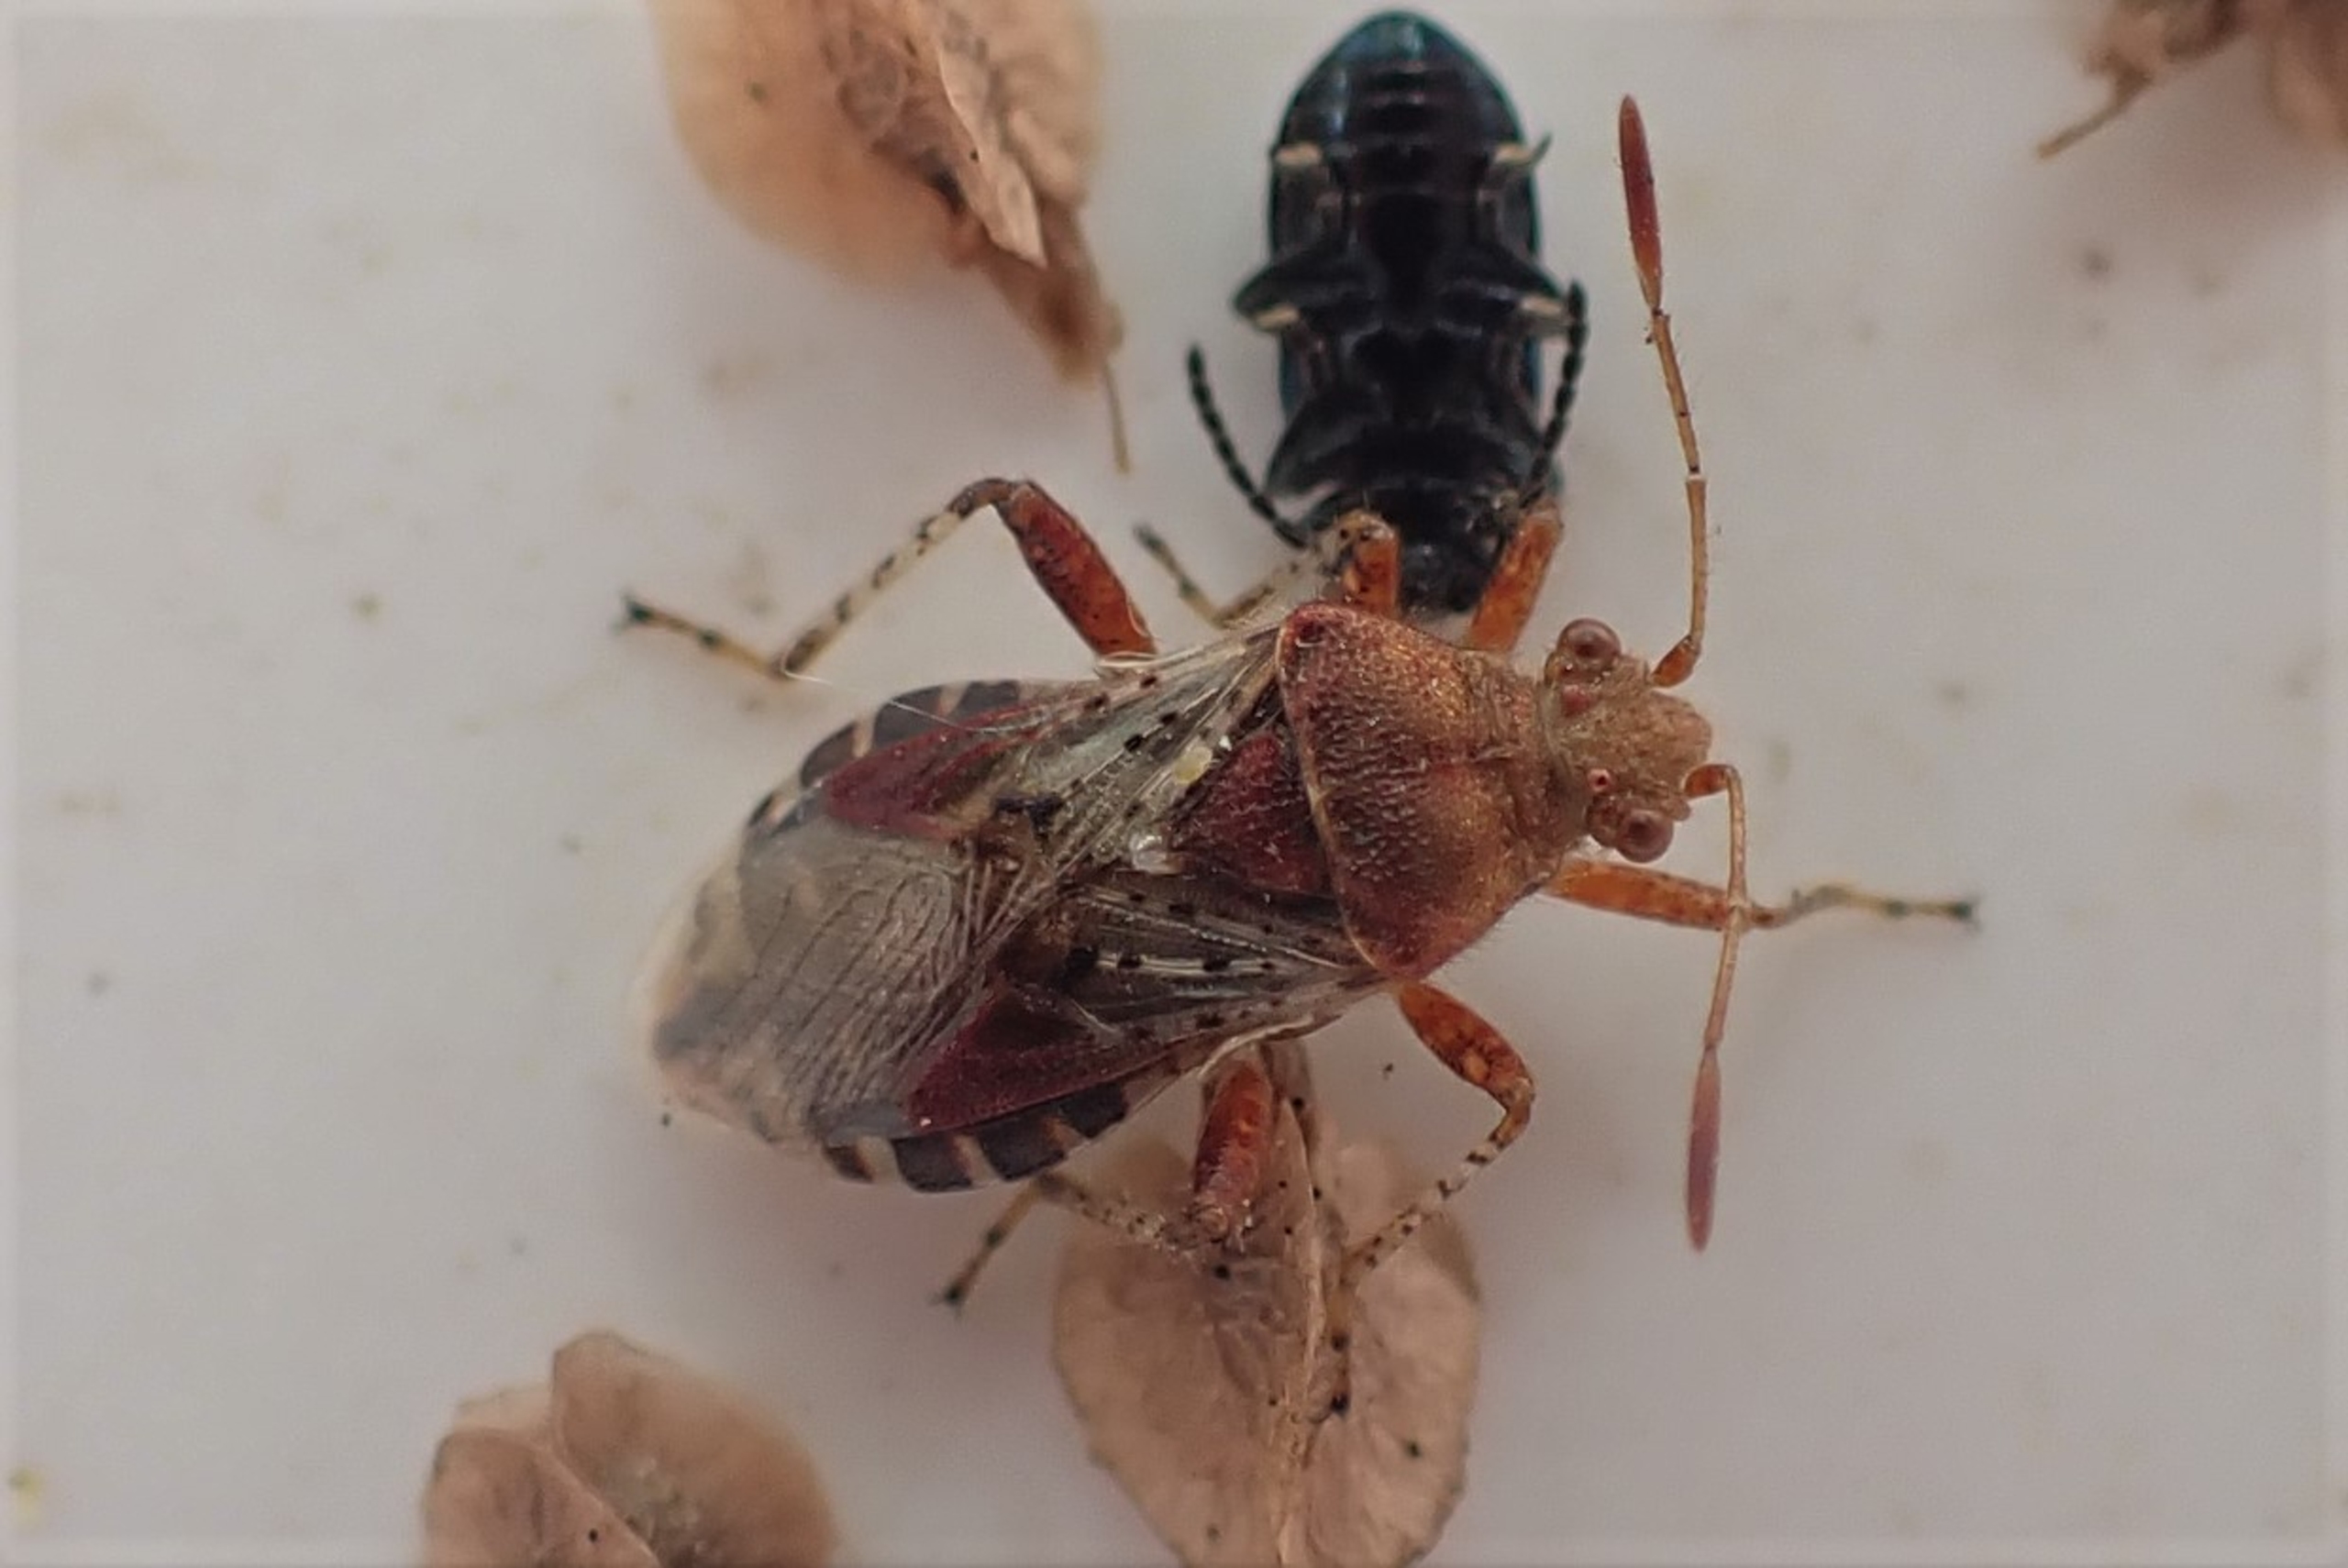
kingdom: Animalia
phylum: Arthropoda
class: Insecta
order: Hemiptera
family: Rhopalidae
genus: Rhopalus
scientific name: Rhopalus subrufus
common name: Skovkanttæge
